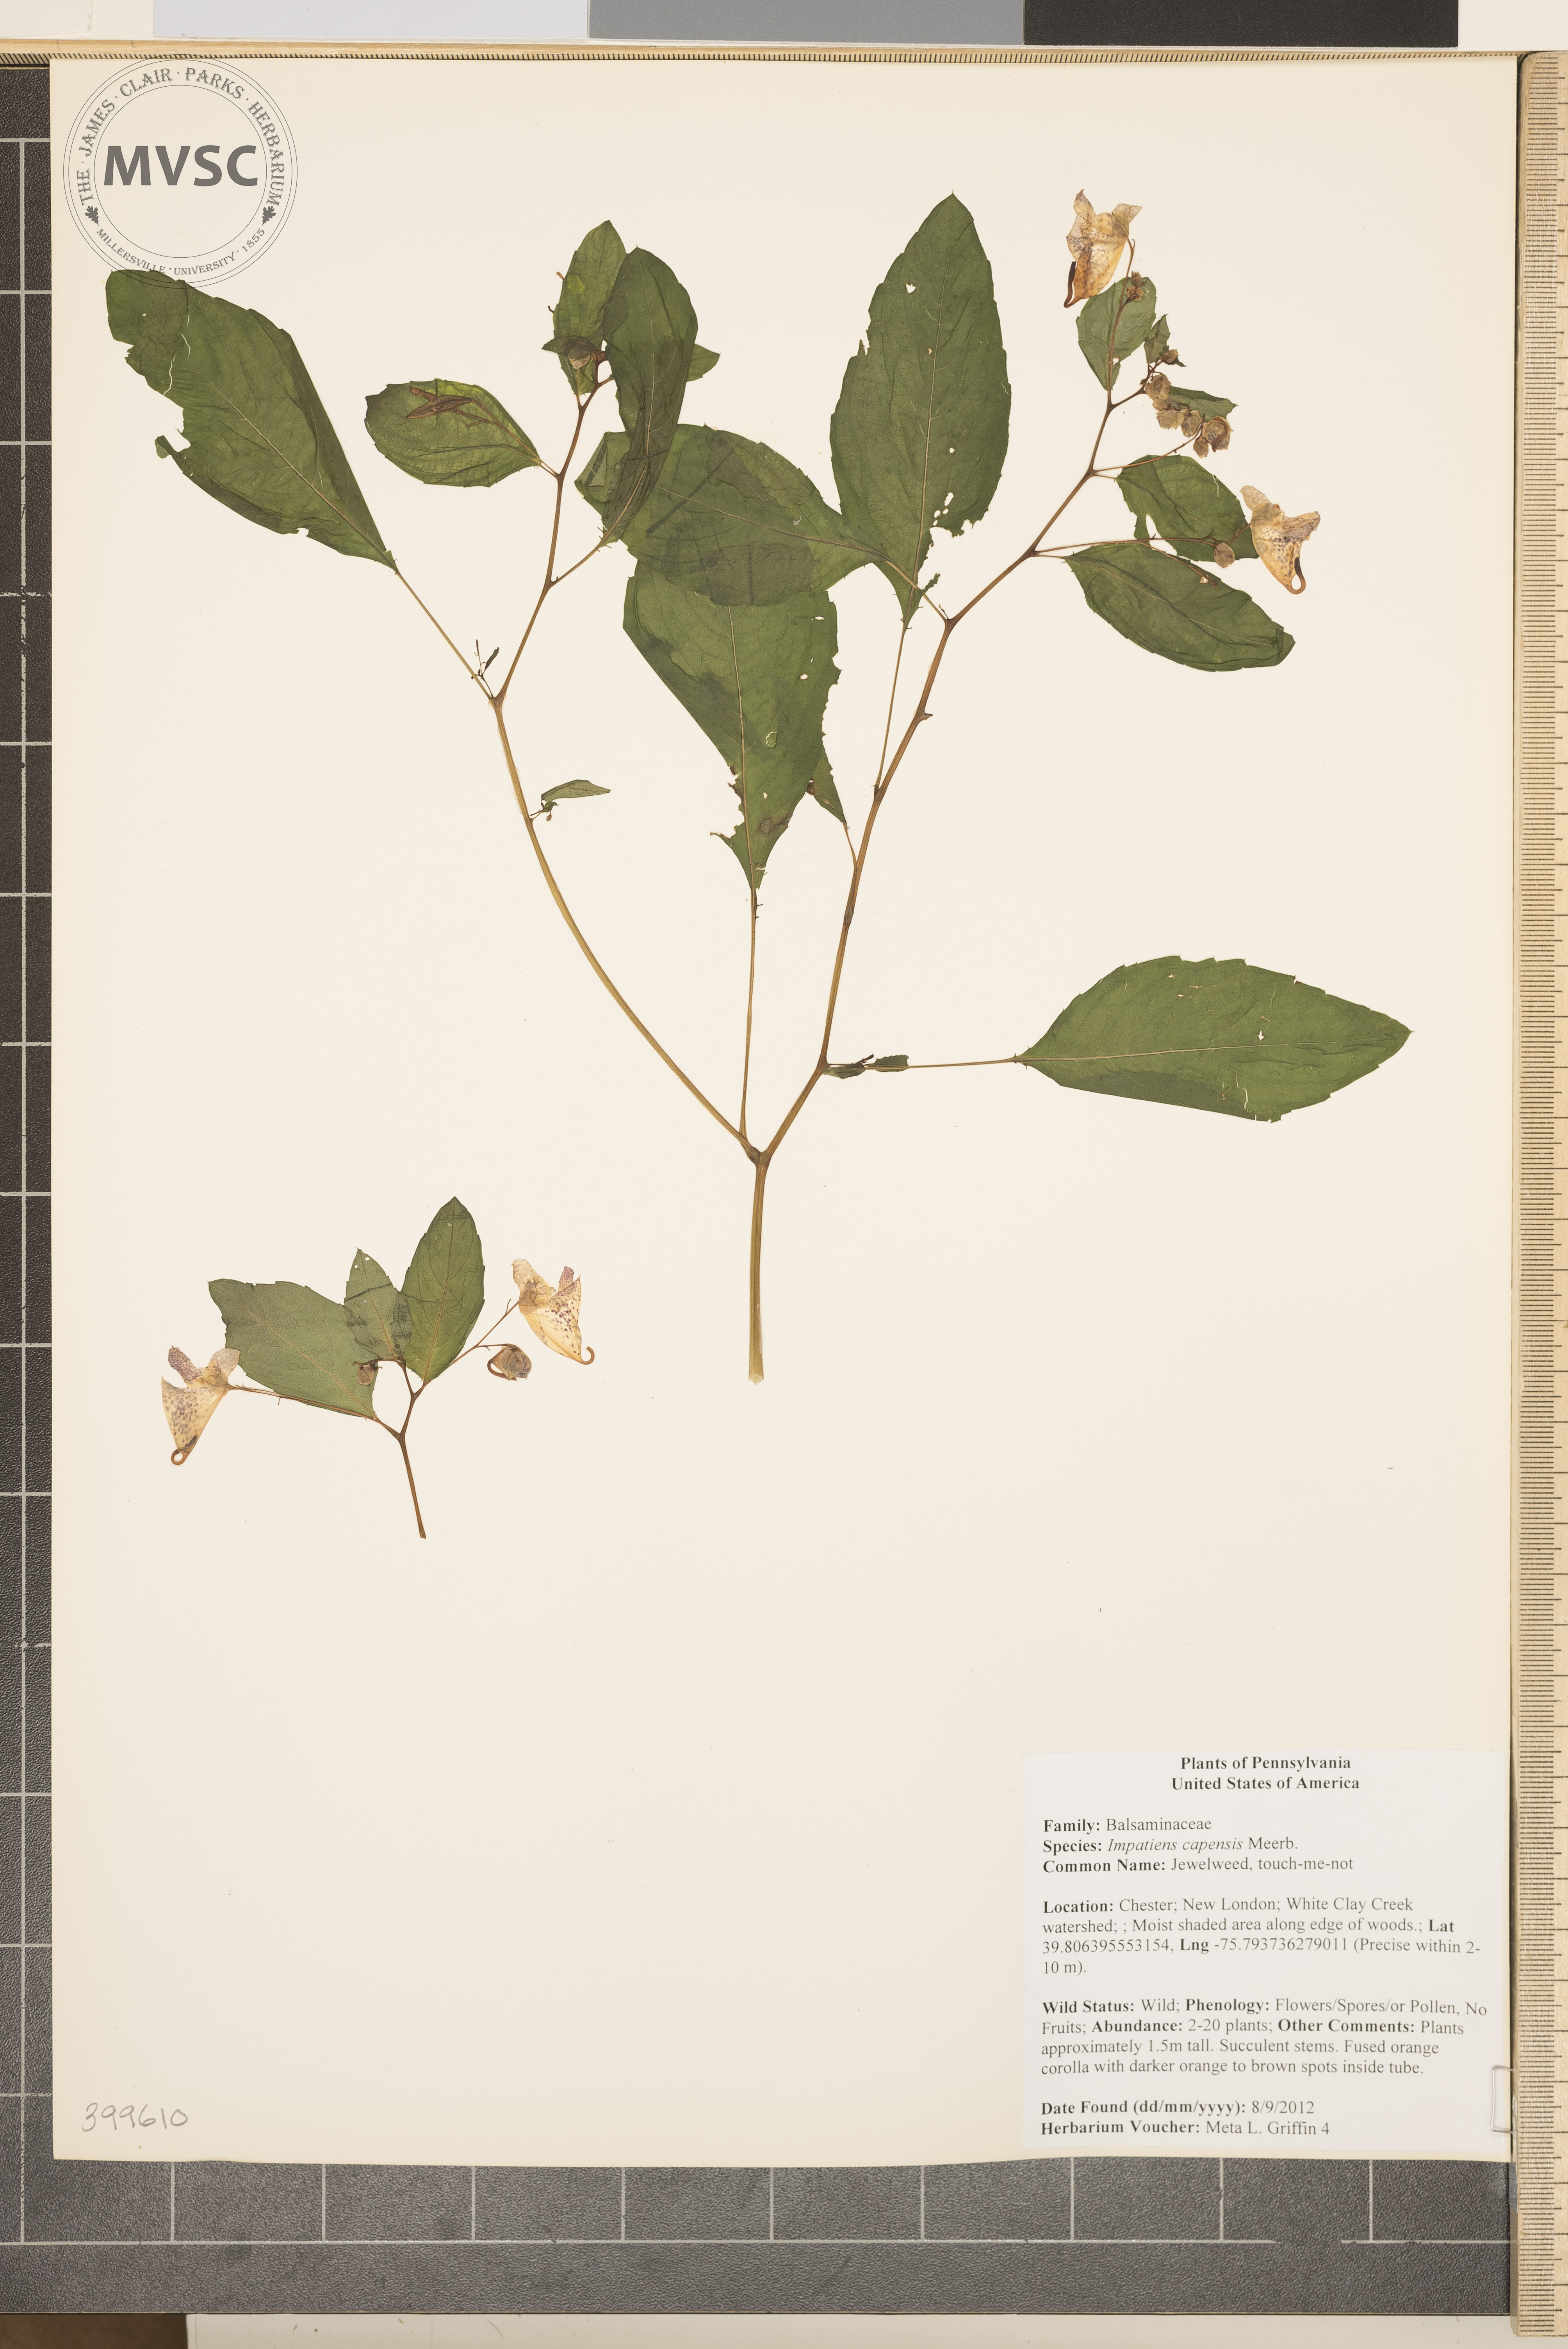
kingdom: Plantae
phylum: Tracheophyta
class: Magnoliopsida
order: Ericales
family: Balsaminaceae
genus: Impatiens
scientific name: Impatiens capensis
